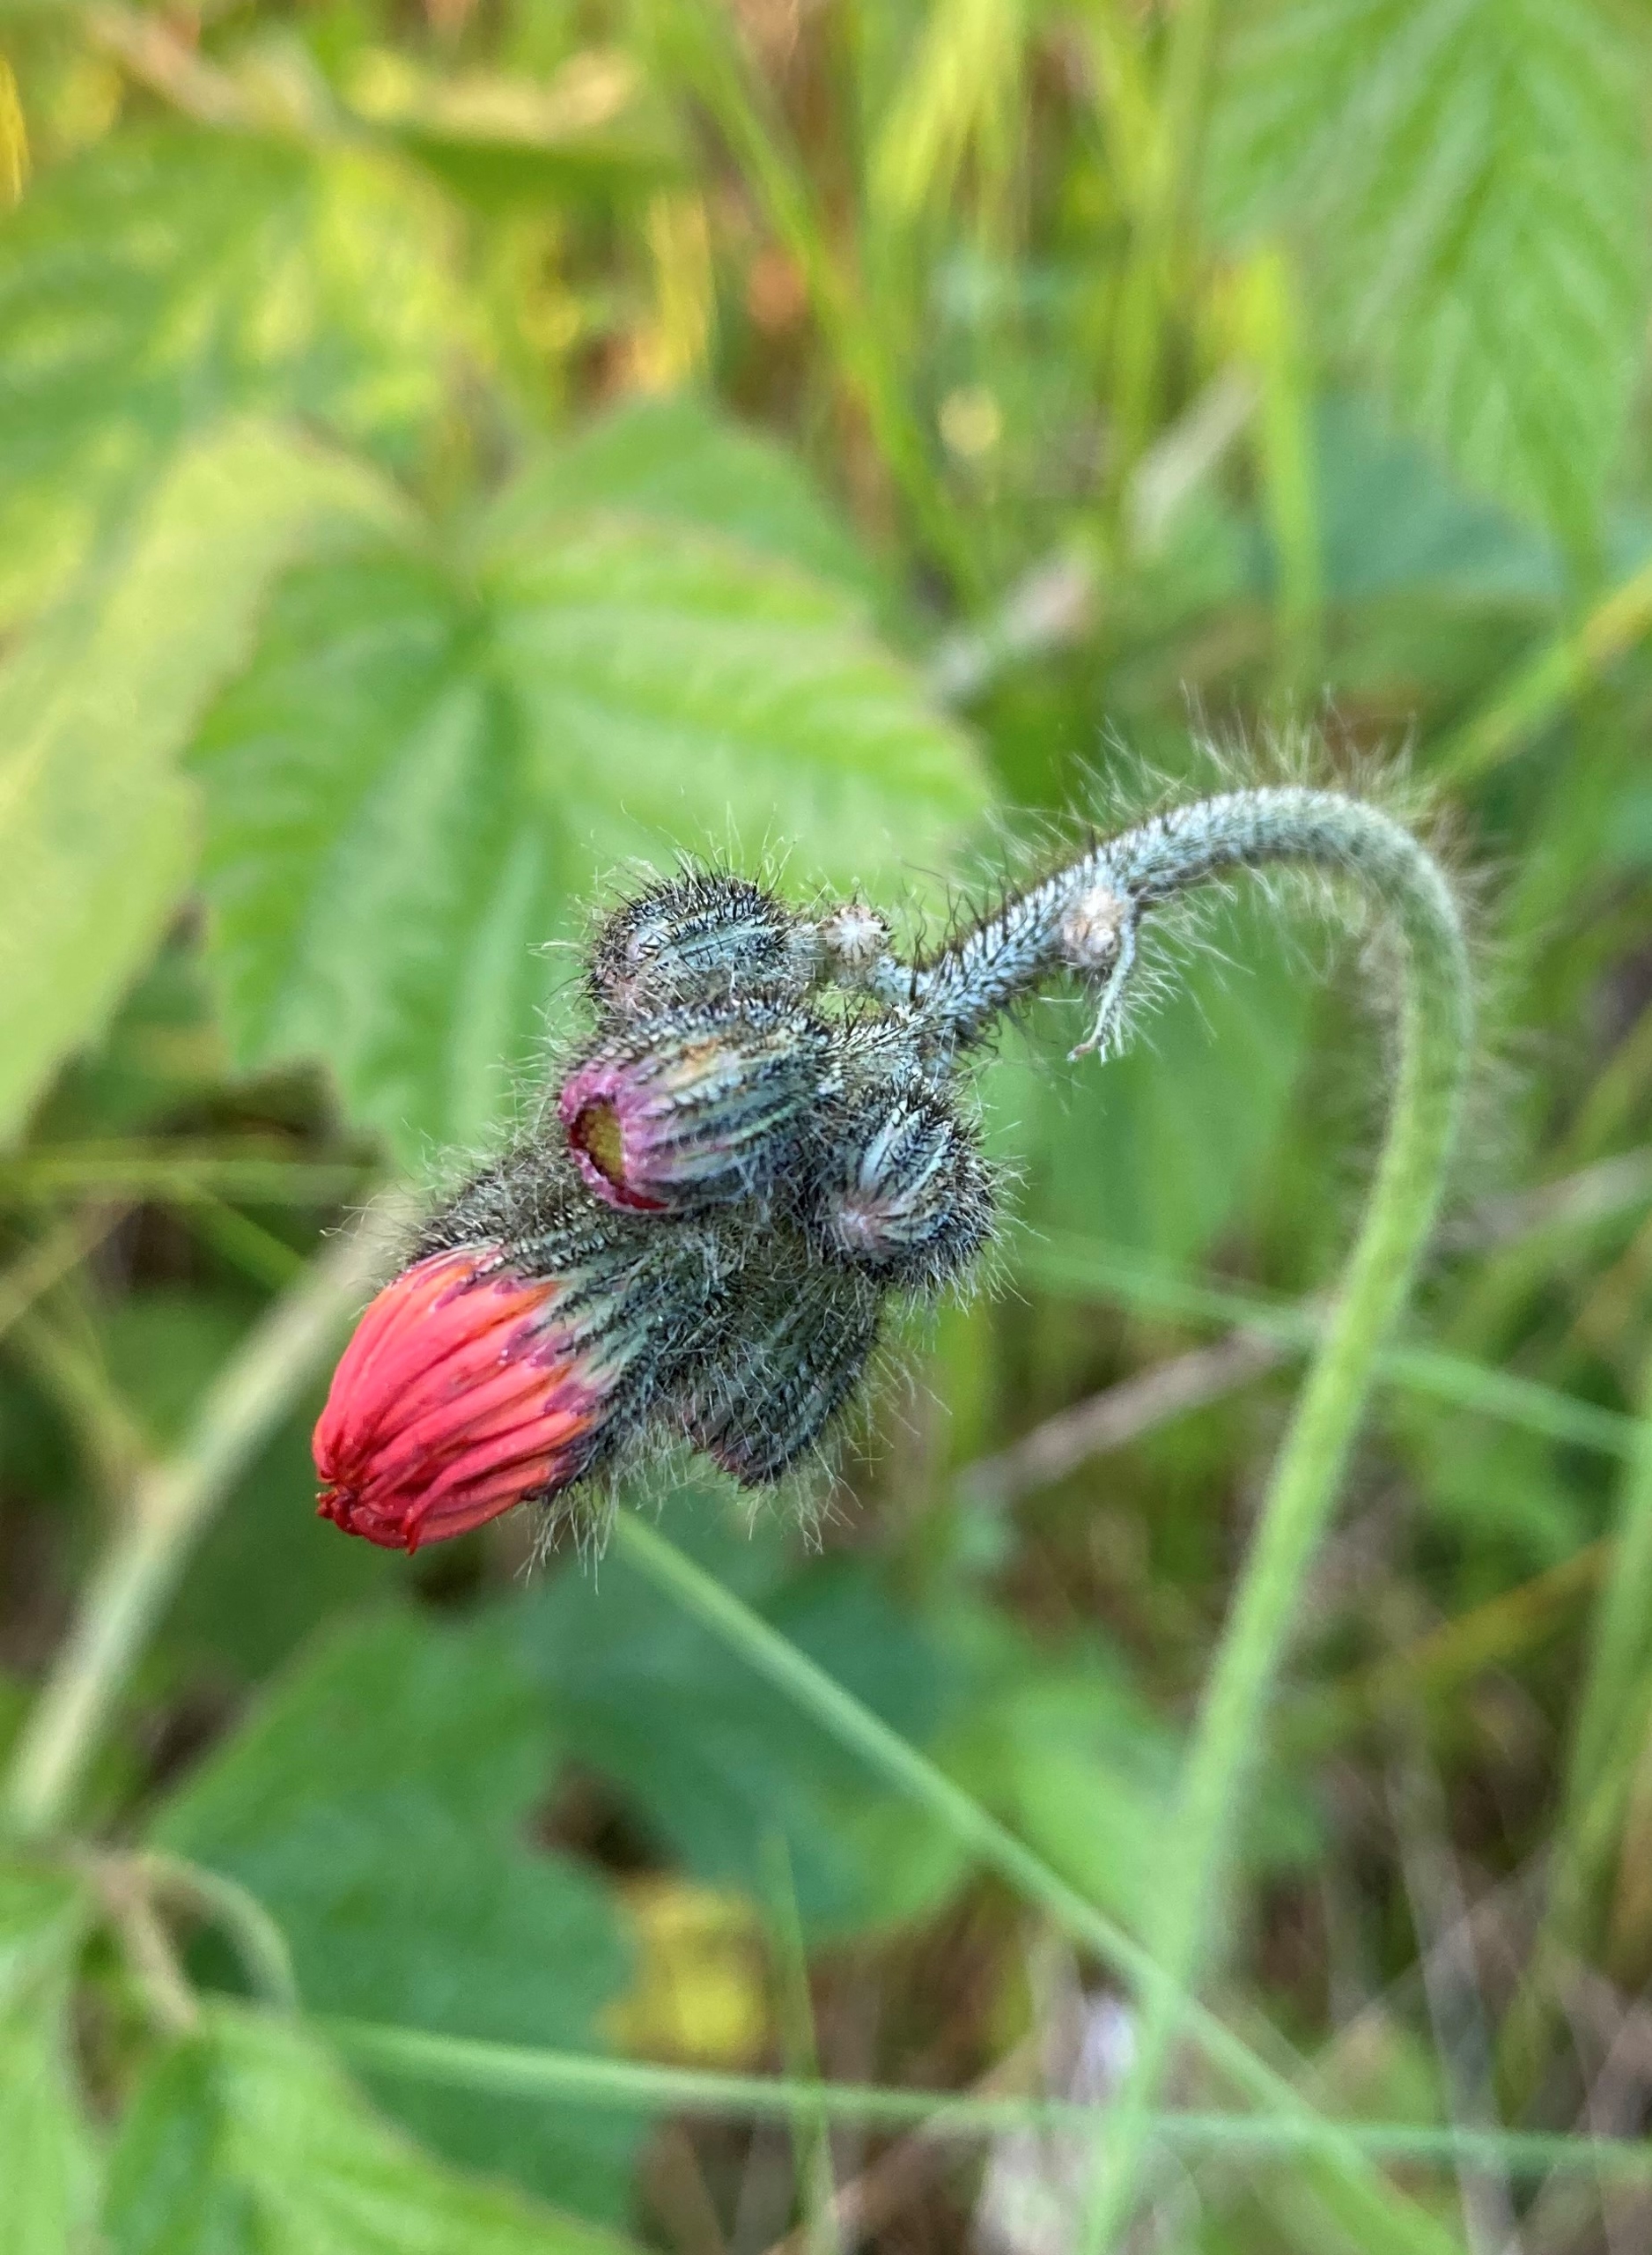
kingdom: Plantae
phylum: Tracheophyta
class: Magnoliopsida
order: Asterales
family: Asteraceae
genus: Pilosella
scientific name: Pilosella aurantiaca
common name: Pomerans-høgeurt
